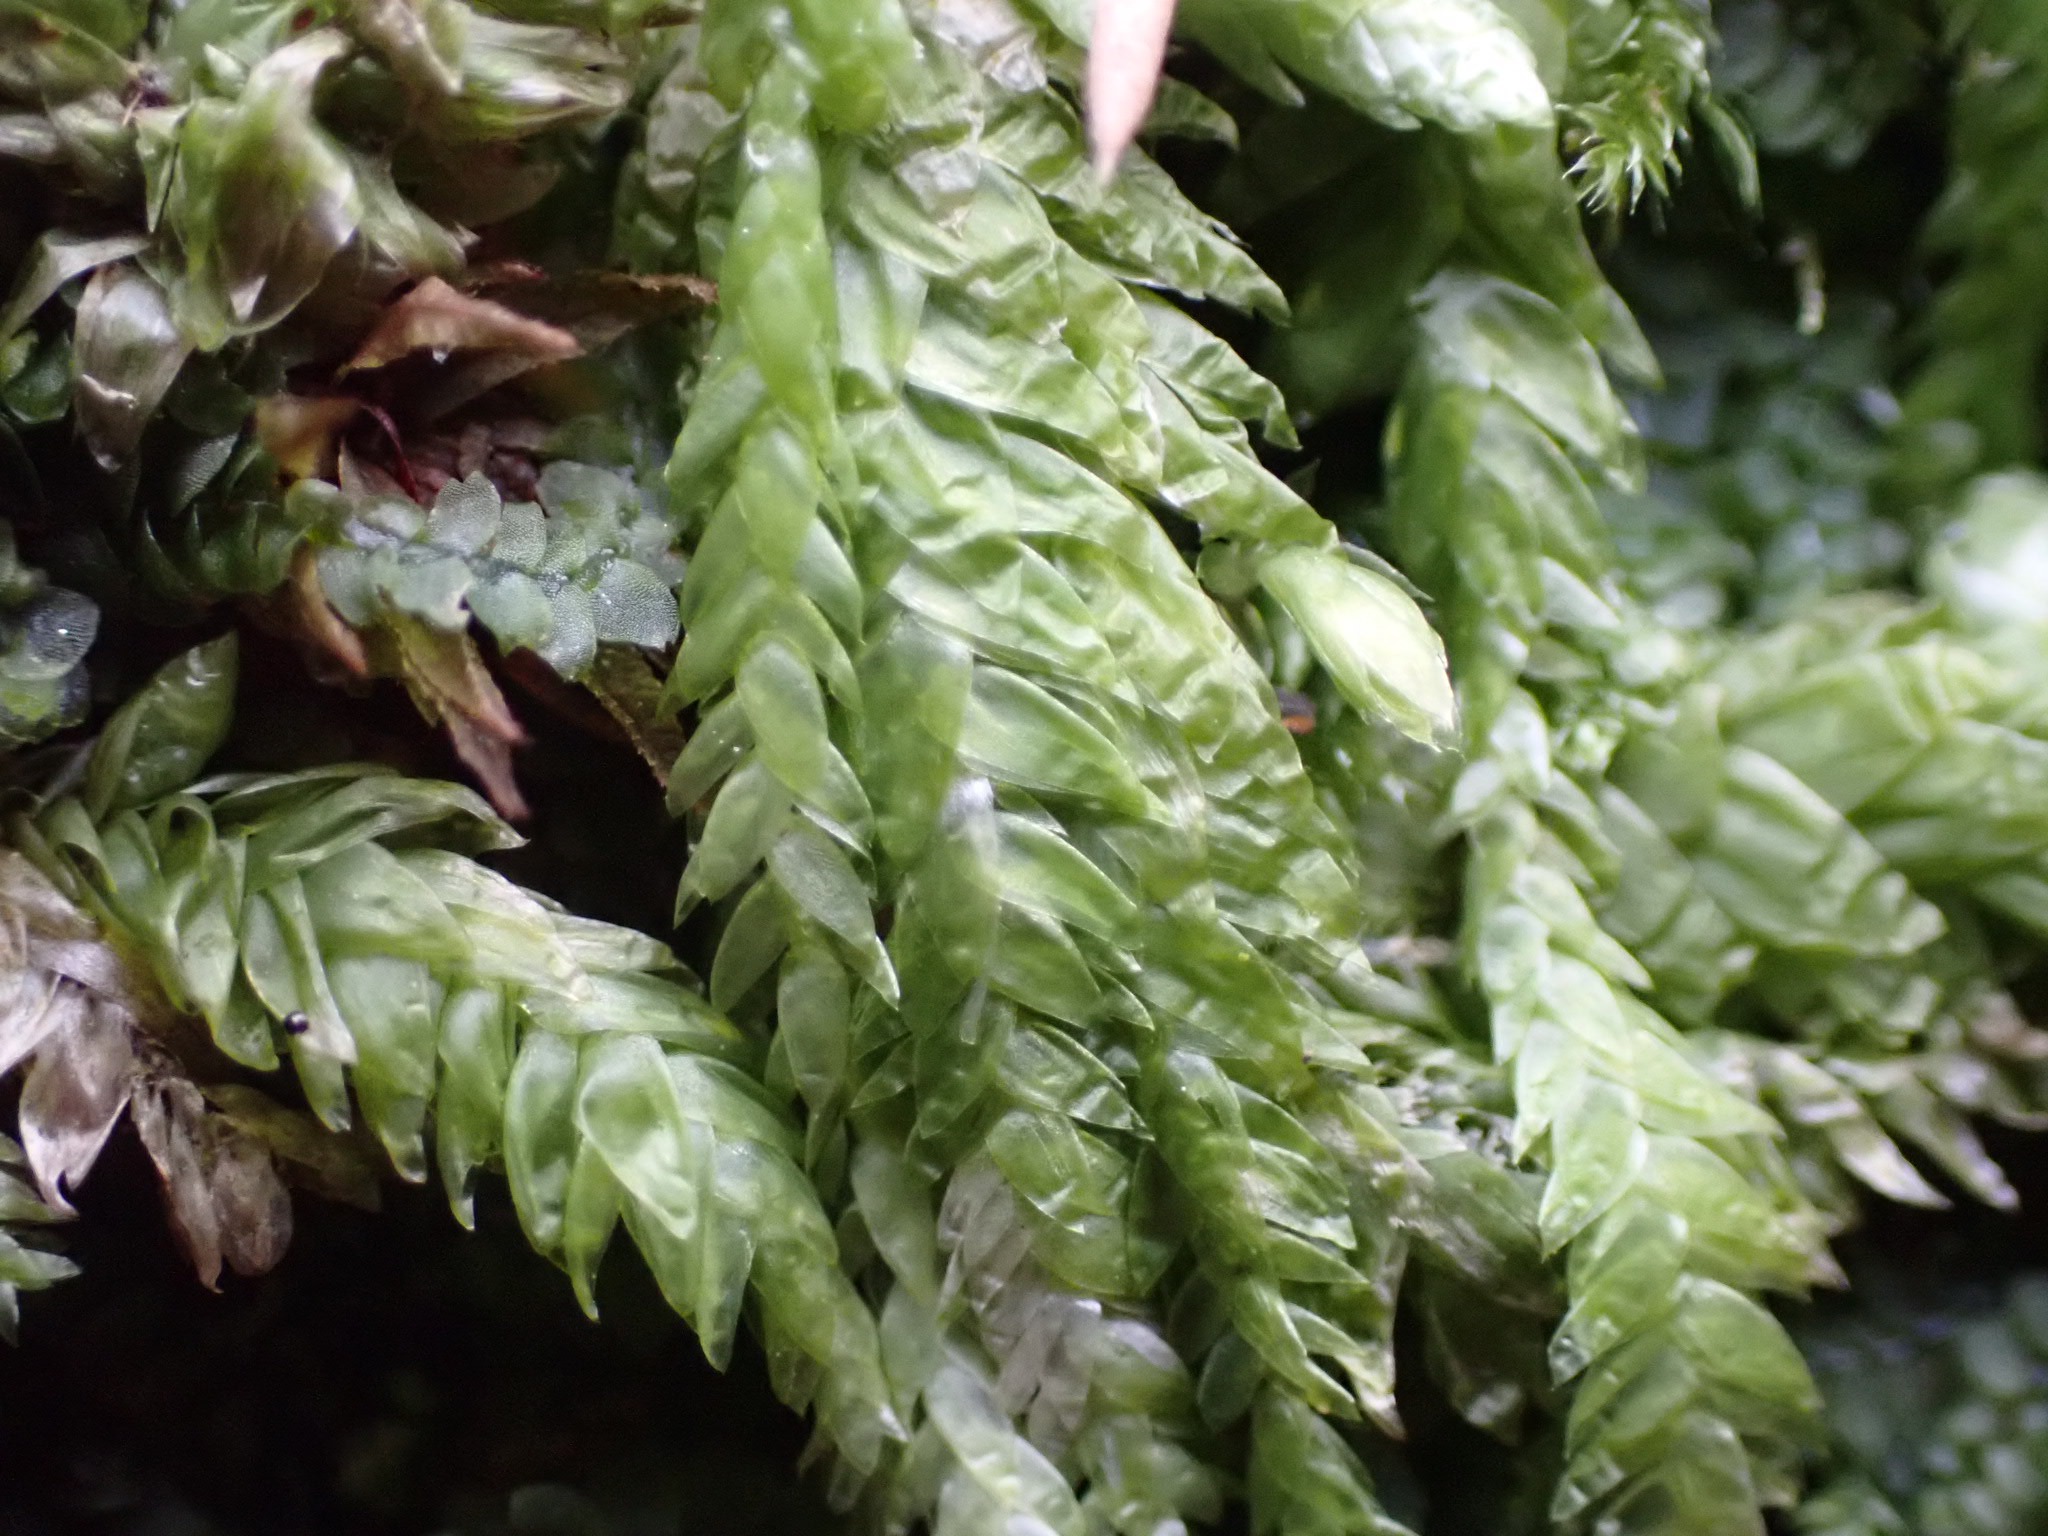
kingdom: Plantae
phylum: Bryophyta
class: Bryopsida
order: Hypnales
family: Plagiotheciaceae
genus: Plagiothecium
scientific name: Plagiothecium undulatum
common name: Bølget tæppemos
